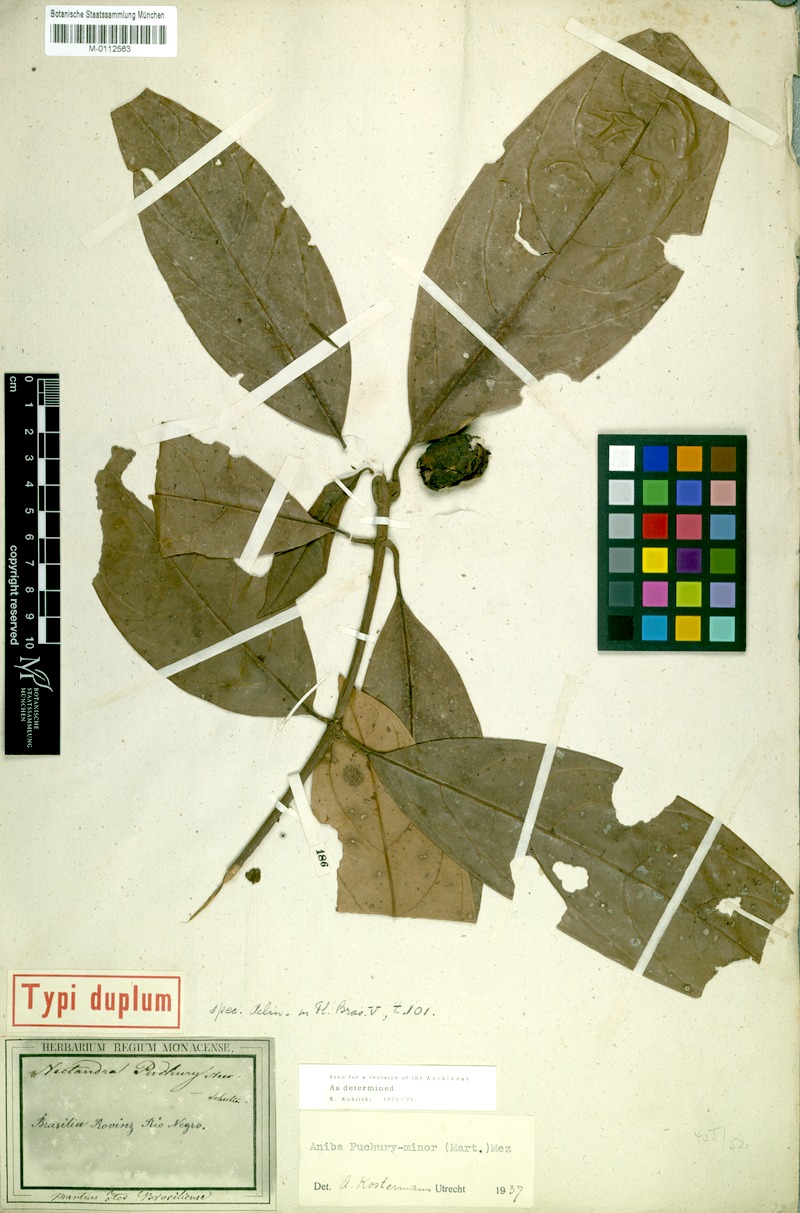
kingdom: Plantae
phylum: Tracheophyta
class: Magnoliopsida
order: Laurales
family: Lauraceae
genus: Aniba
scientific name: Aniba puchury-minor
